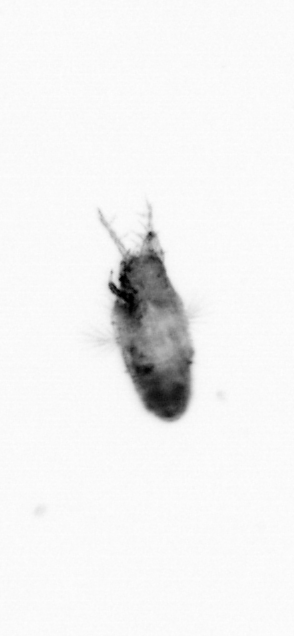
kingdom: Animalia
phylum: Arthropoda
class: Copepoda
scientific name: Copepoda
